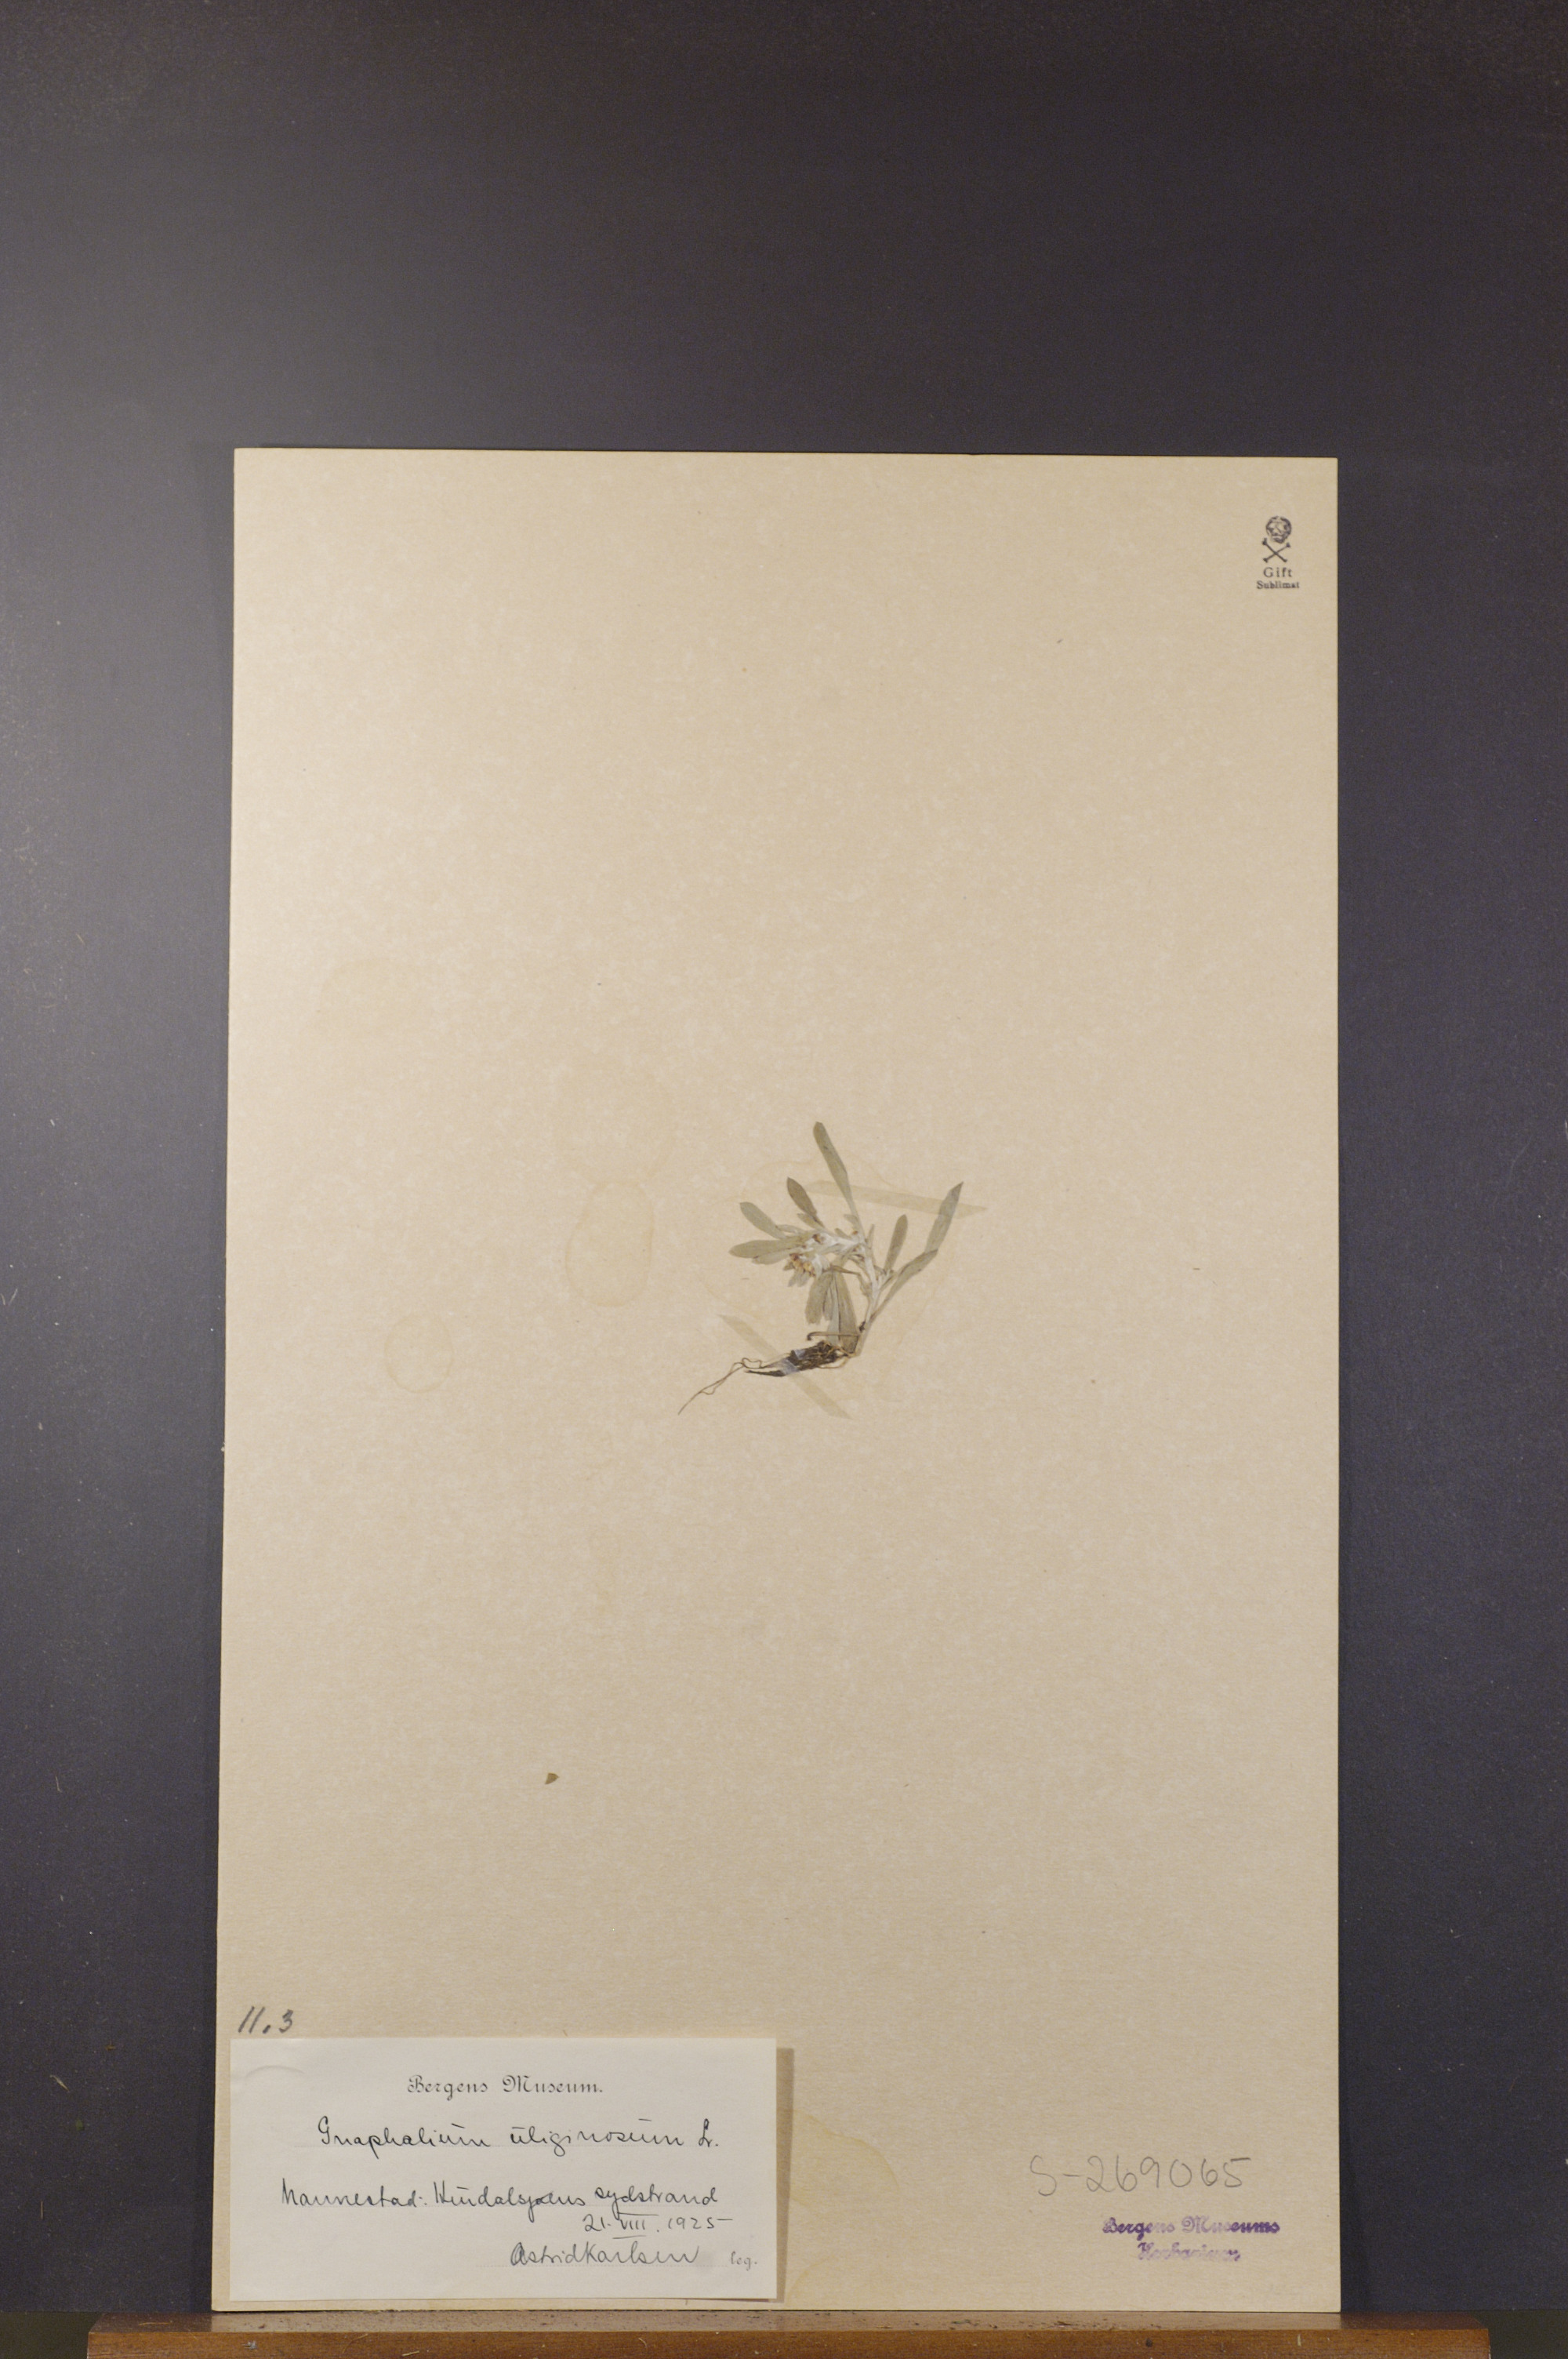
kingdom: Plantae
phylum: Tracheophyta
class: Magnoliopsida
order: Asterales
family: Asteraceae
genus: Gnaphalium
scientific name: Gnaphalium uliginosum
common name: Marsh cudweed
